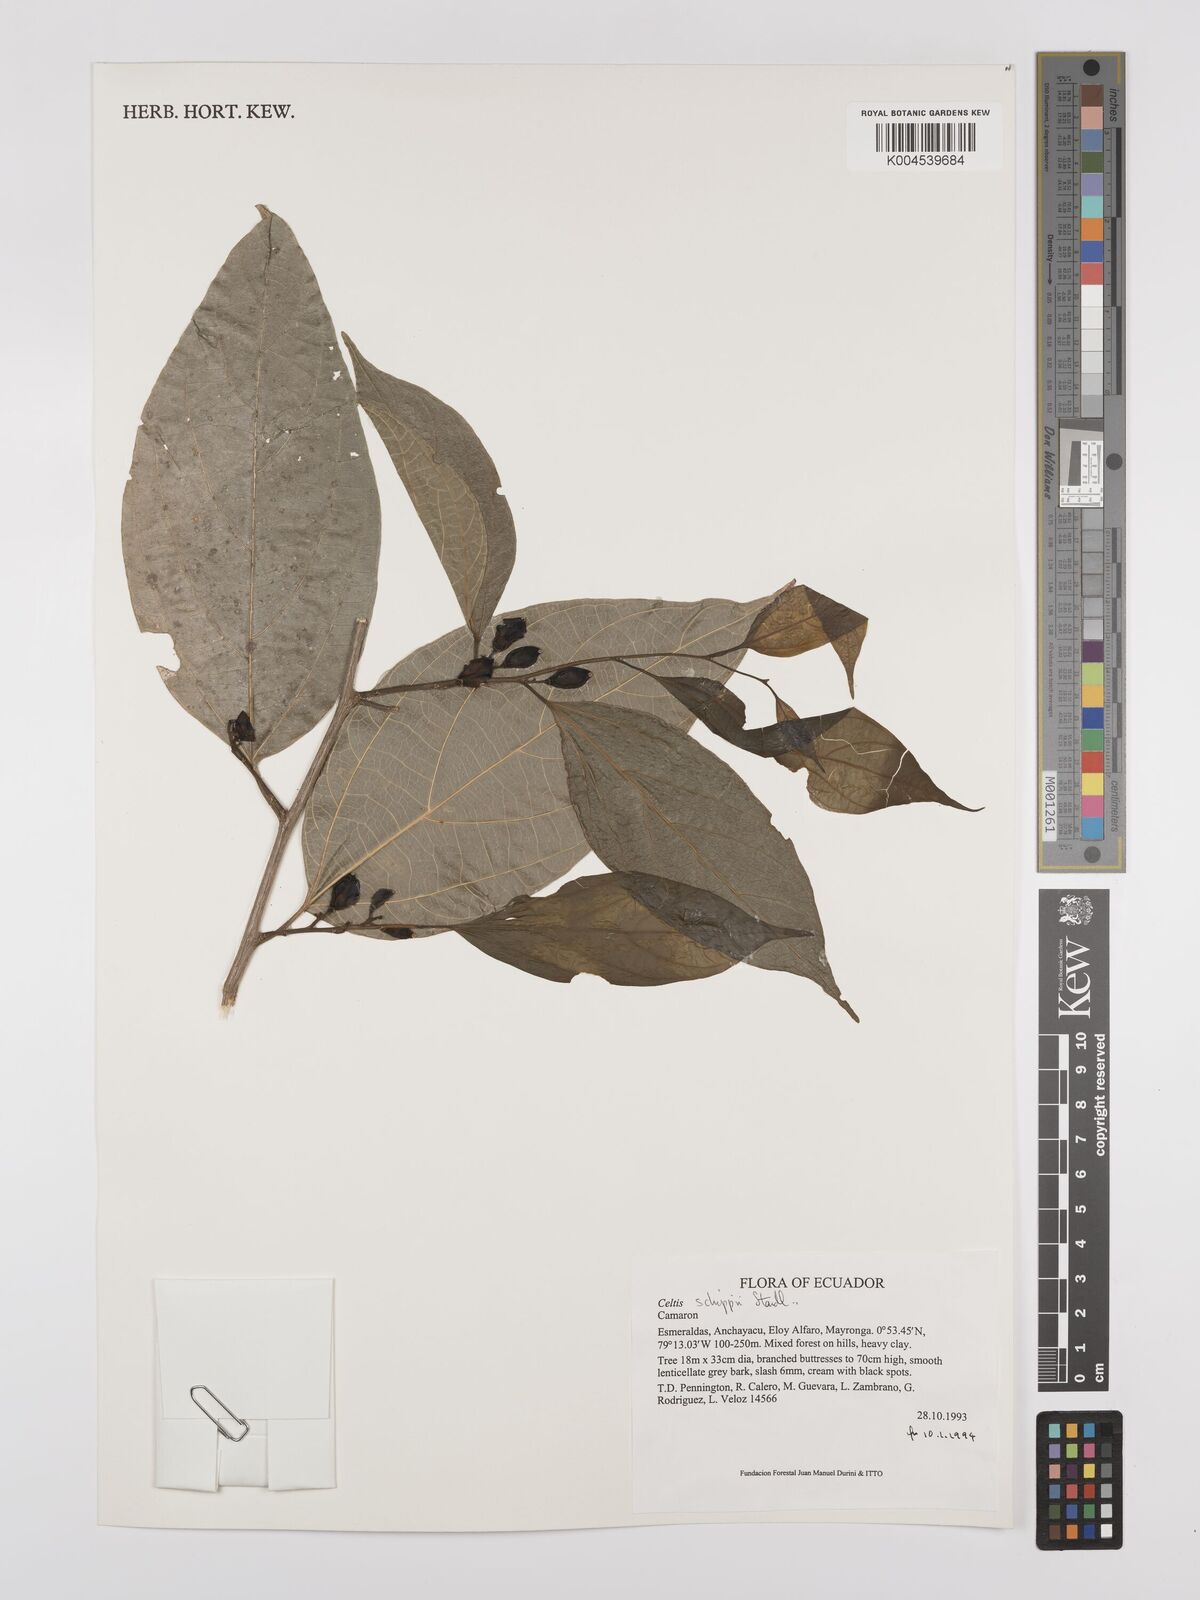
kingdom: Plantae
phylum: Tracheophyta
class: Magnoliopsida
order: Rosales
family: Cannabaceae
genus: Celtis
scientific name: Celtis schippii
